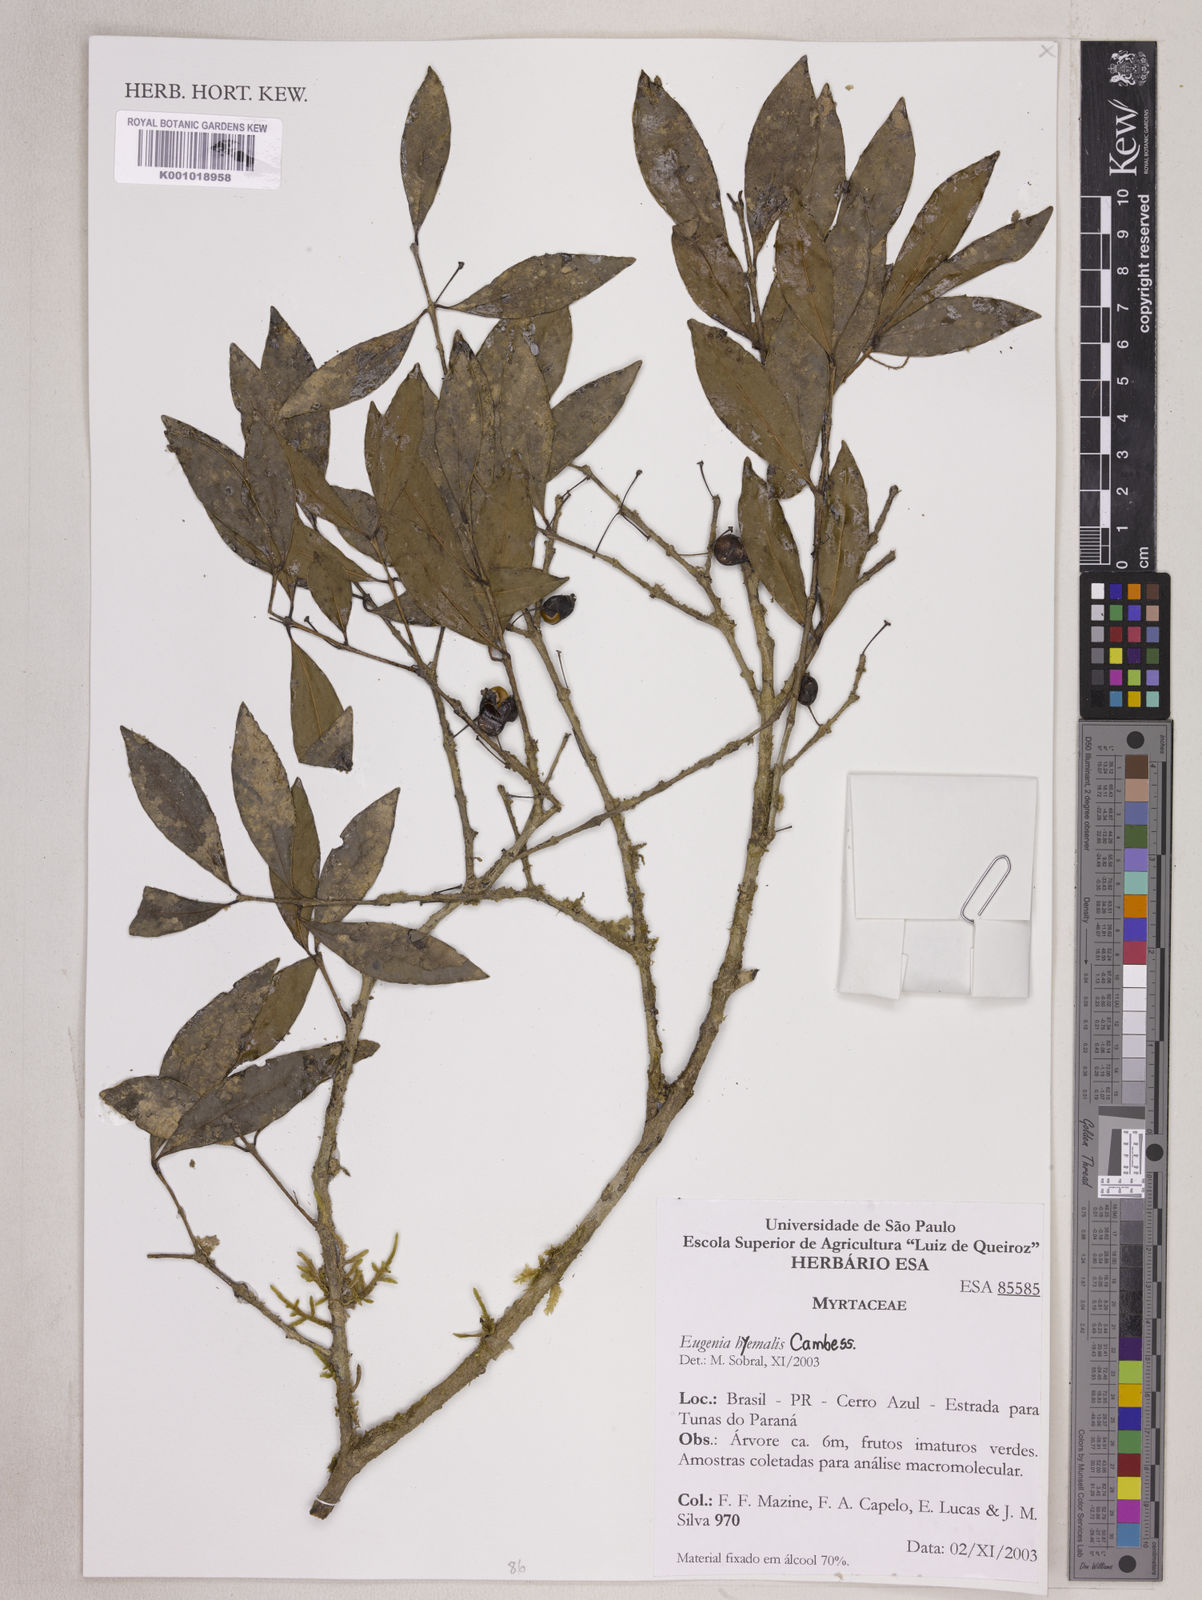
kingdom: Plantae
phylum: Tracheophyta
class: Magnoliopsida
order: Myrtales
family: Myrtaceae
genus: Eugenia
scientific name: Eugenia hiemalis
